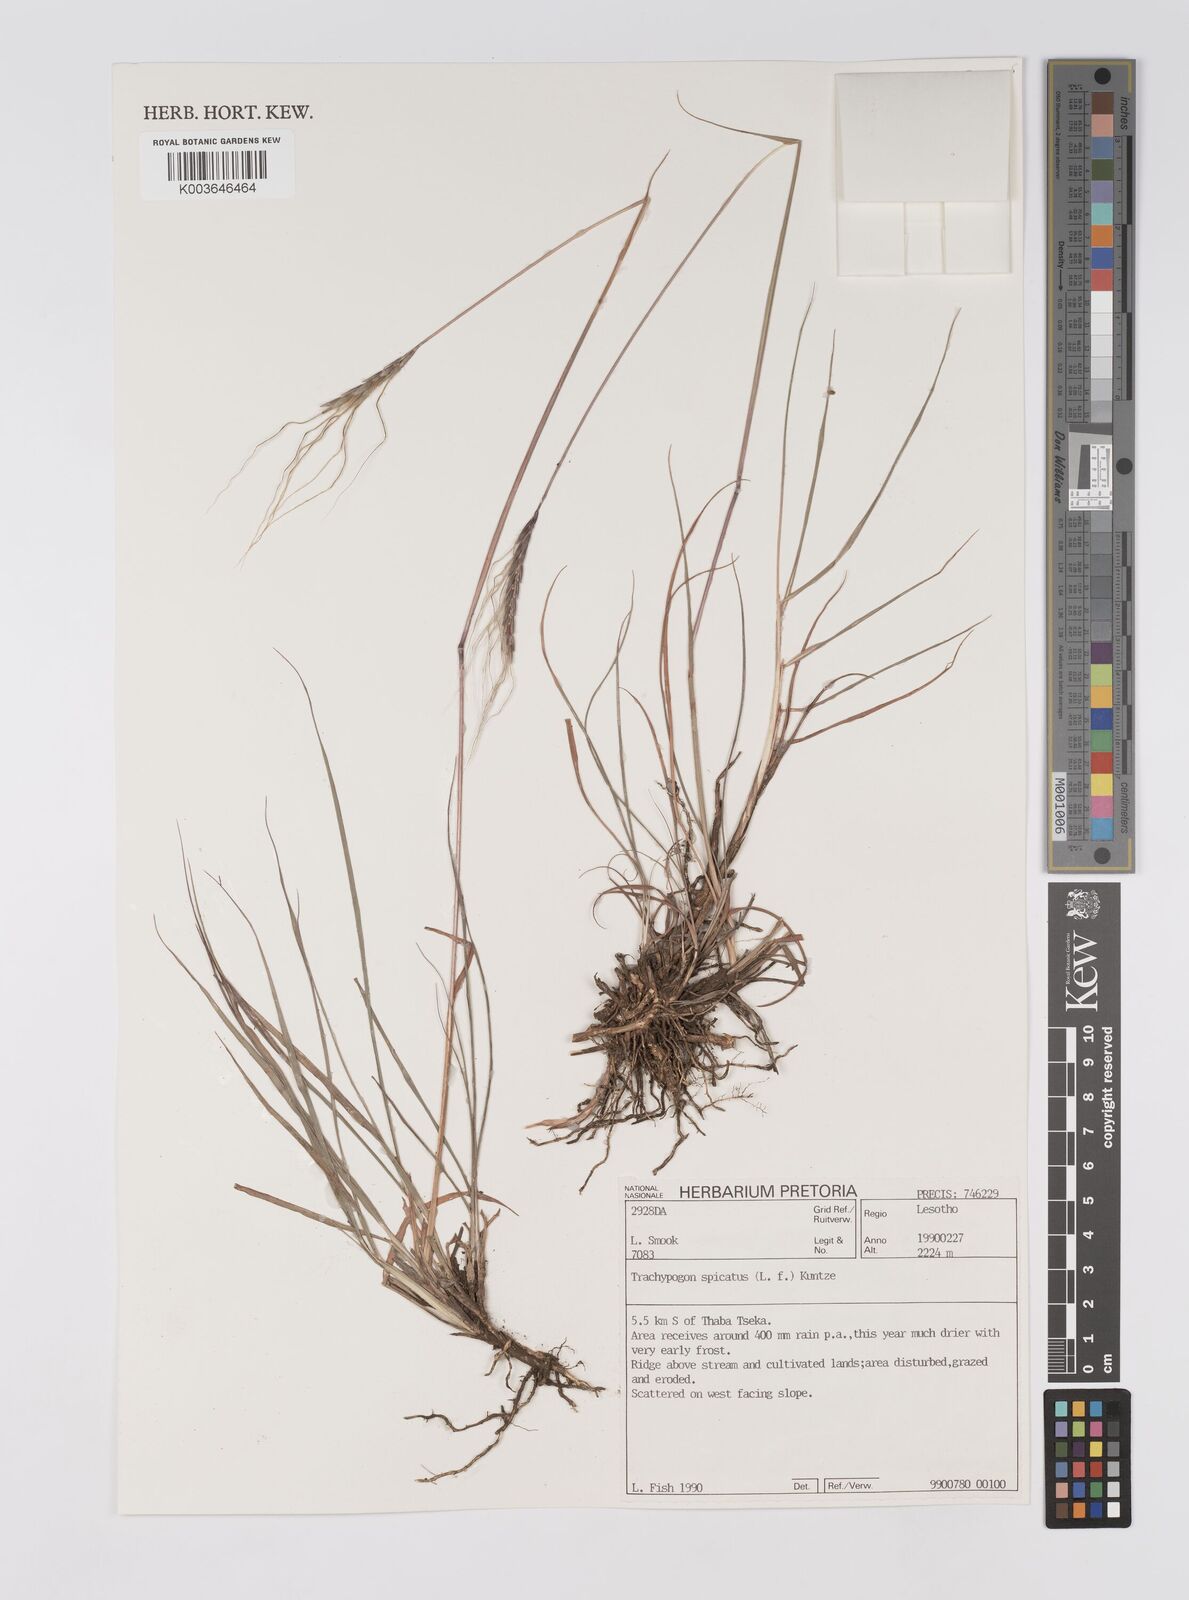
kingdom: Plantae
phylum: Tracheophyta
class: Liliopsida
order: Poales
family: Poaceae
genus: Trachypogon
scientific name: Trachypogon spicatus
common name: Crinkle-awn
